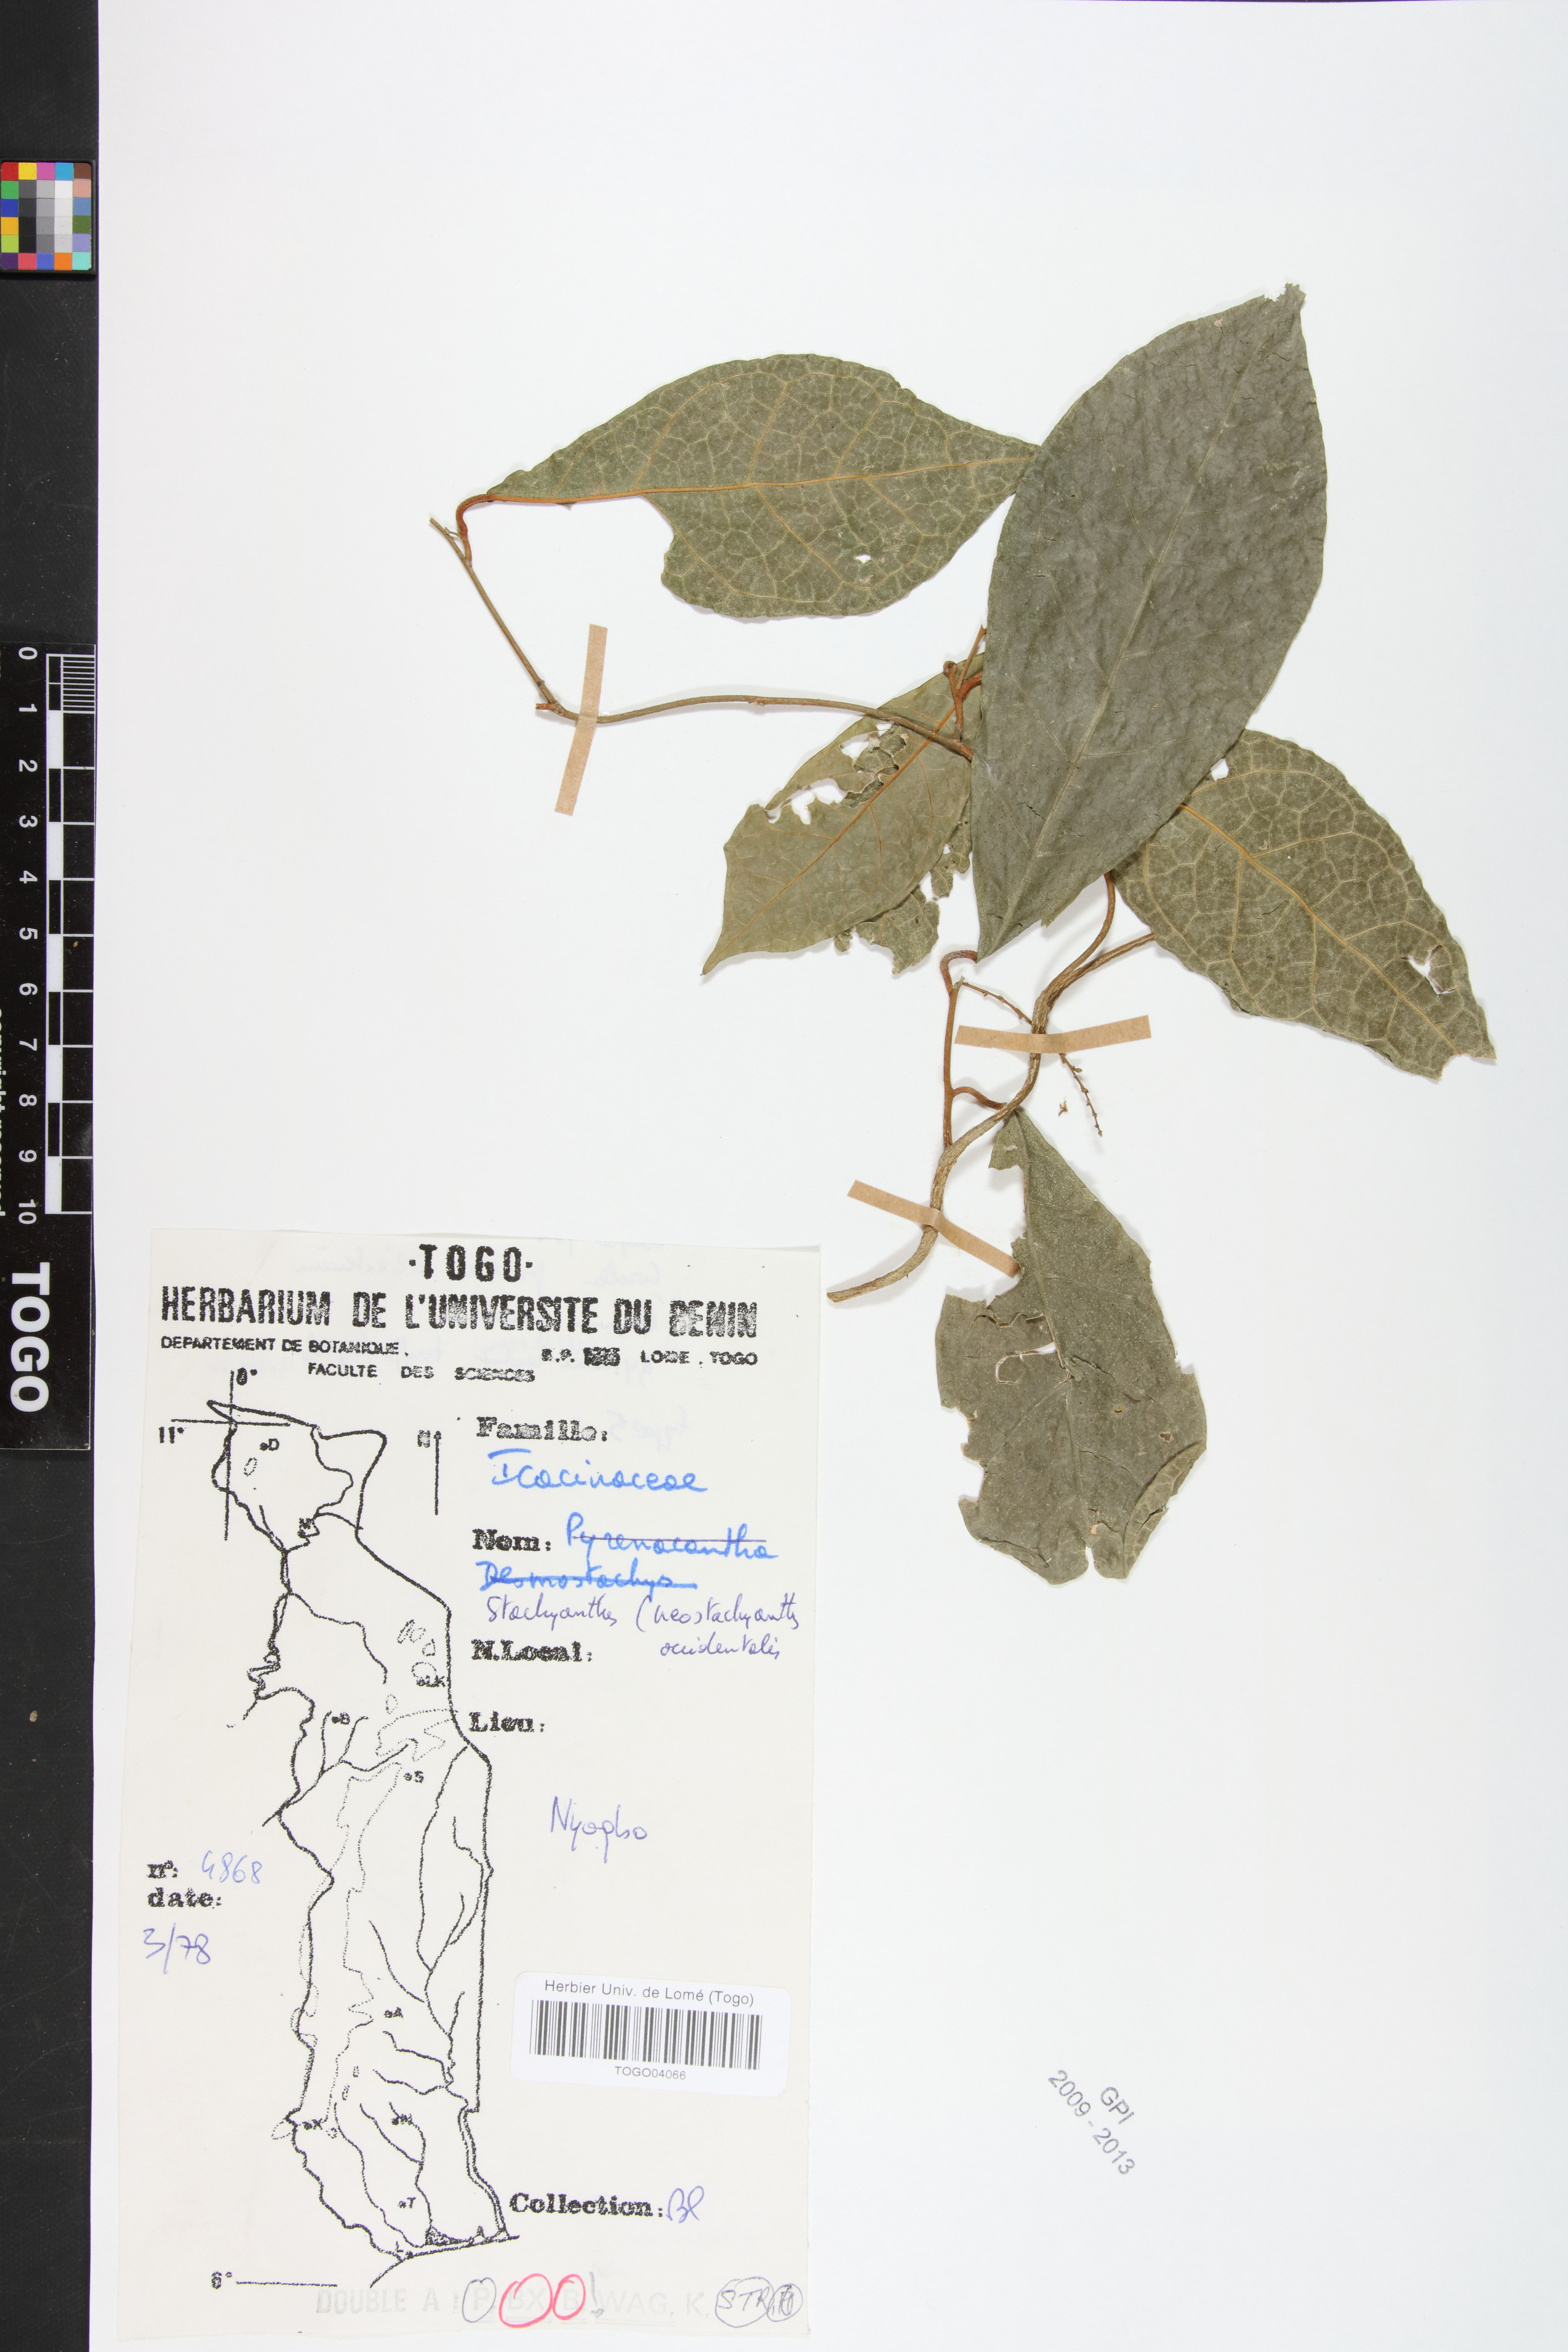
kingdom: Plantae
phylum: Tracheophyta
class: Magnoliopsida
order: Icacinales
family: Icacinaceae
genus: Stachyanthus
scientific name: Stachyanthus occidentalis
